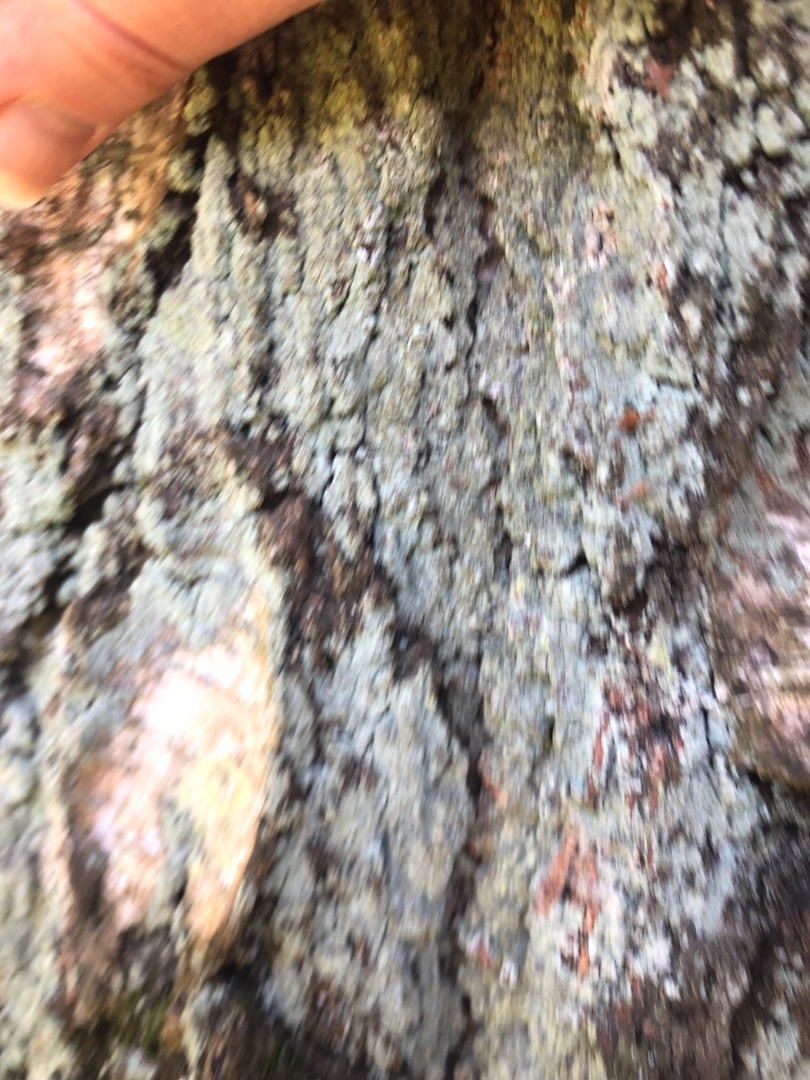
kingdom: Fungi
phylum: Ascomycota
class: Lecanoromycetes
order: Lecanorales
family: Stereocaulaceae
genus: Lepraria
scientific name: Lepraria
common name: Støvlav
